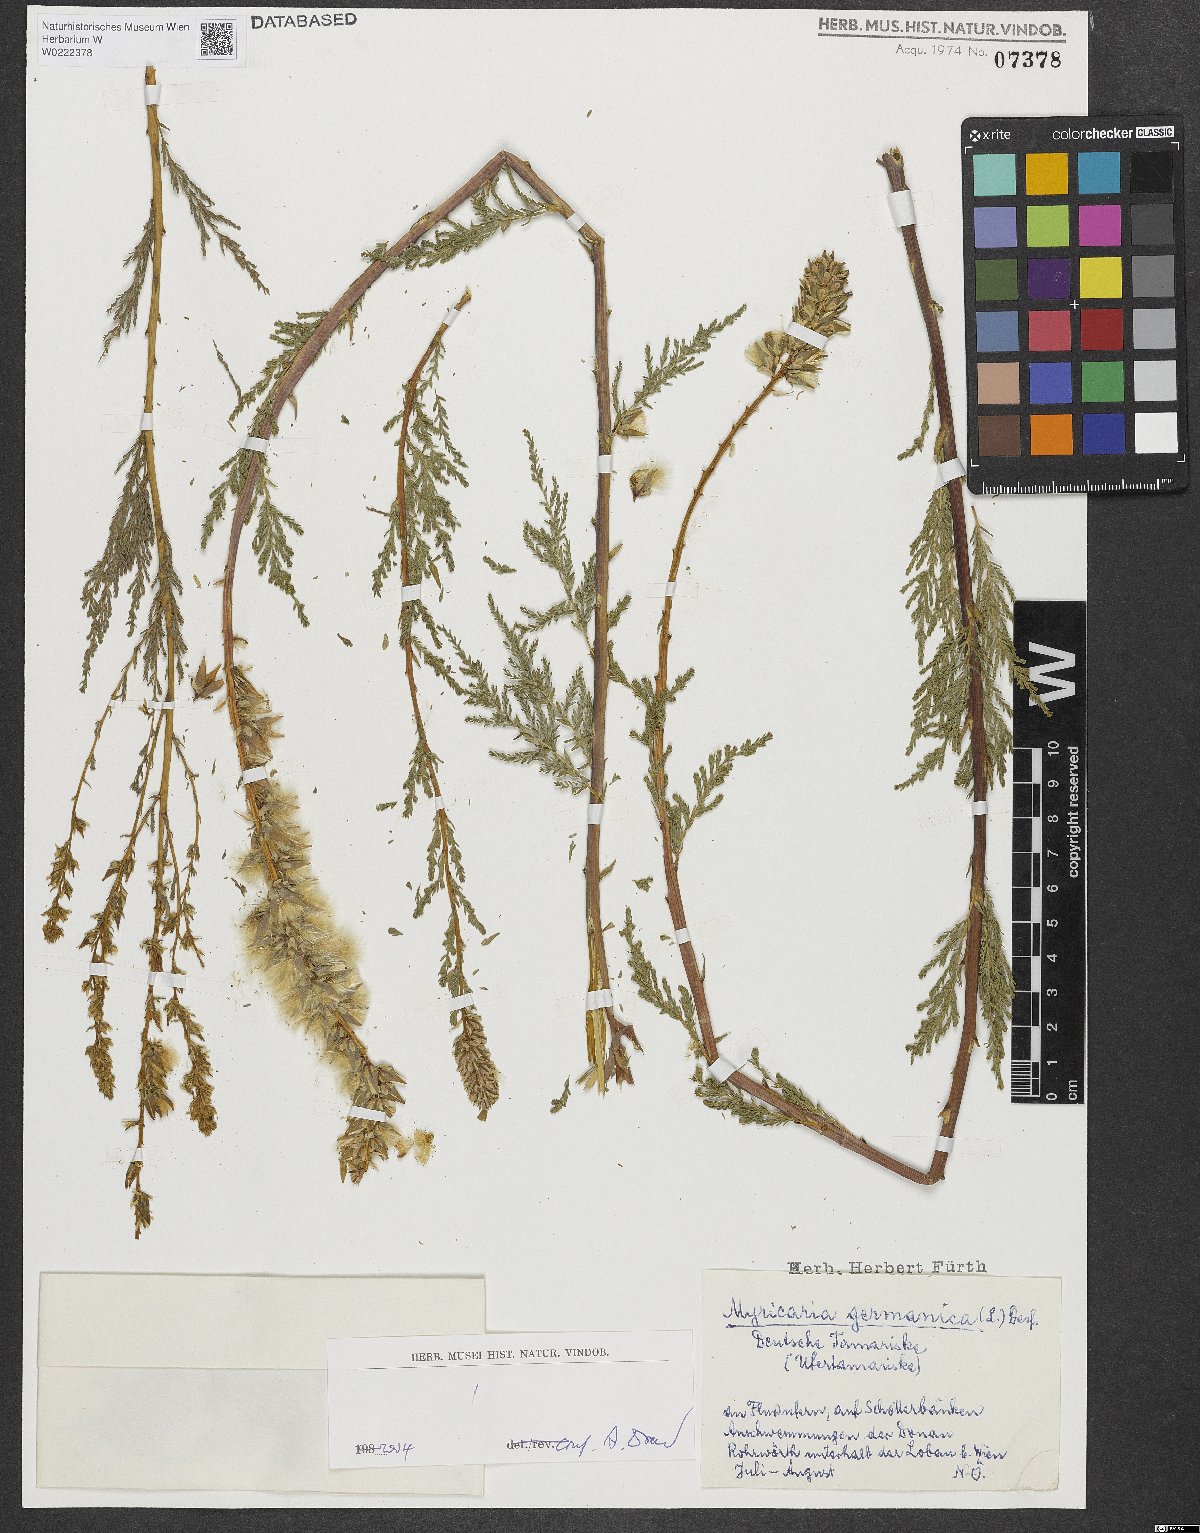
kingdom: Plantae
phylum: Tracheophyta
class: Magnoliopsida
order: Caryophyllales
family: Tamaricaceae
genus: Myricaria
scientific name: Myricaria germanica
